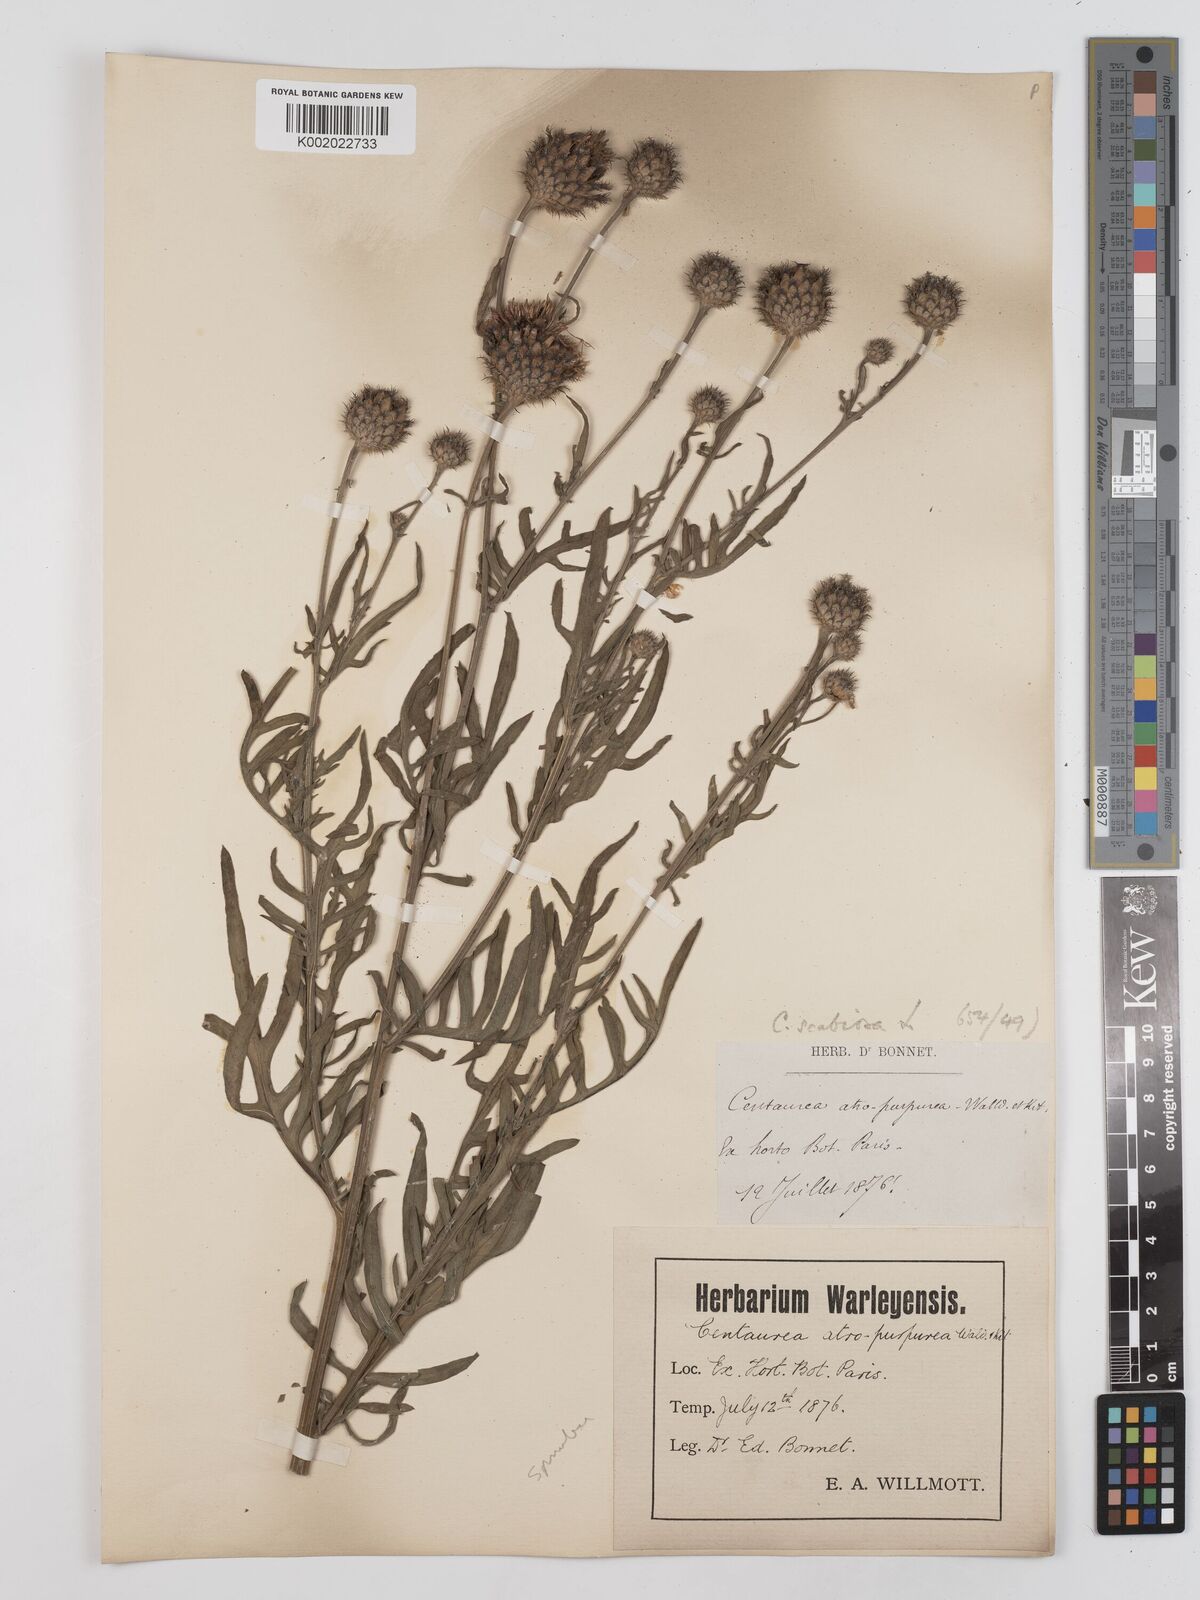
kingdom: Plantae
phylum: Tracheophyta
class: Magnoliopsida
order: Asterales
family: Asteraceae
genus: Centaurea
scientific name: Centaurea
